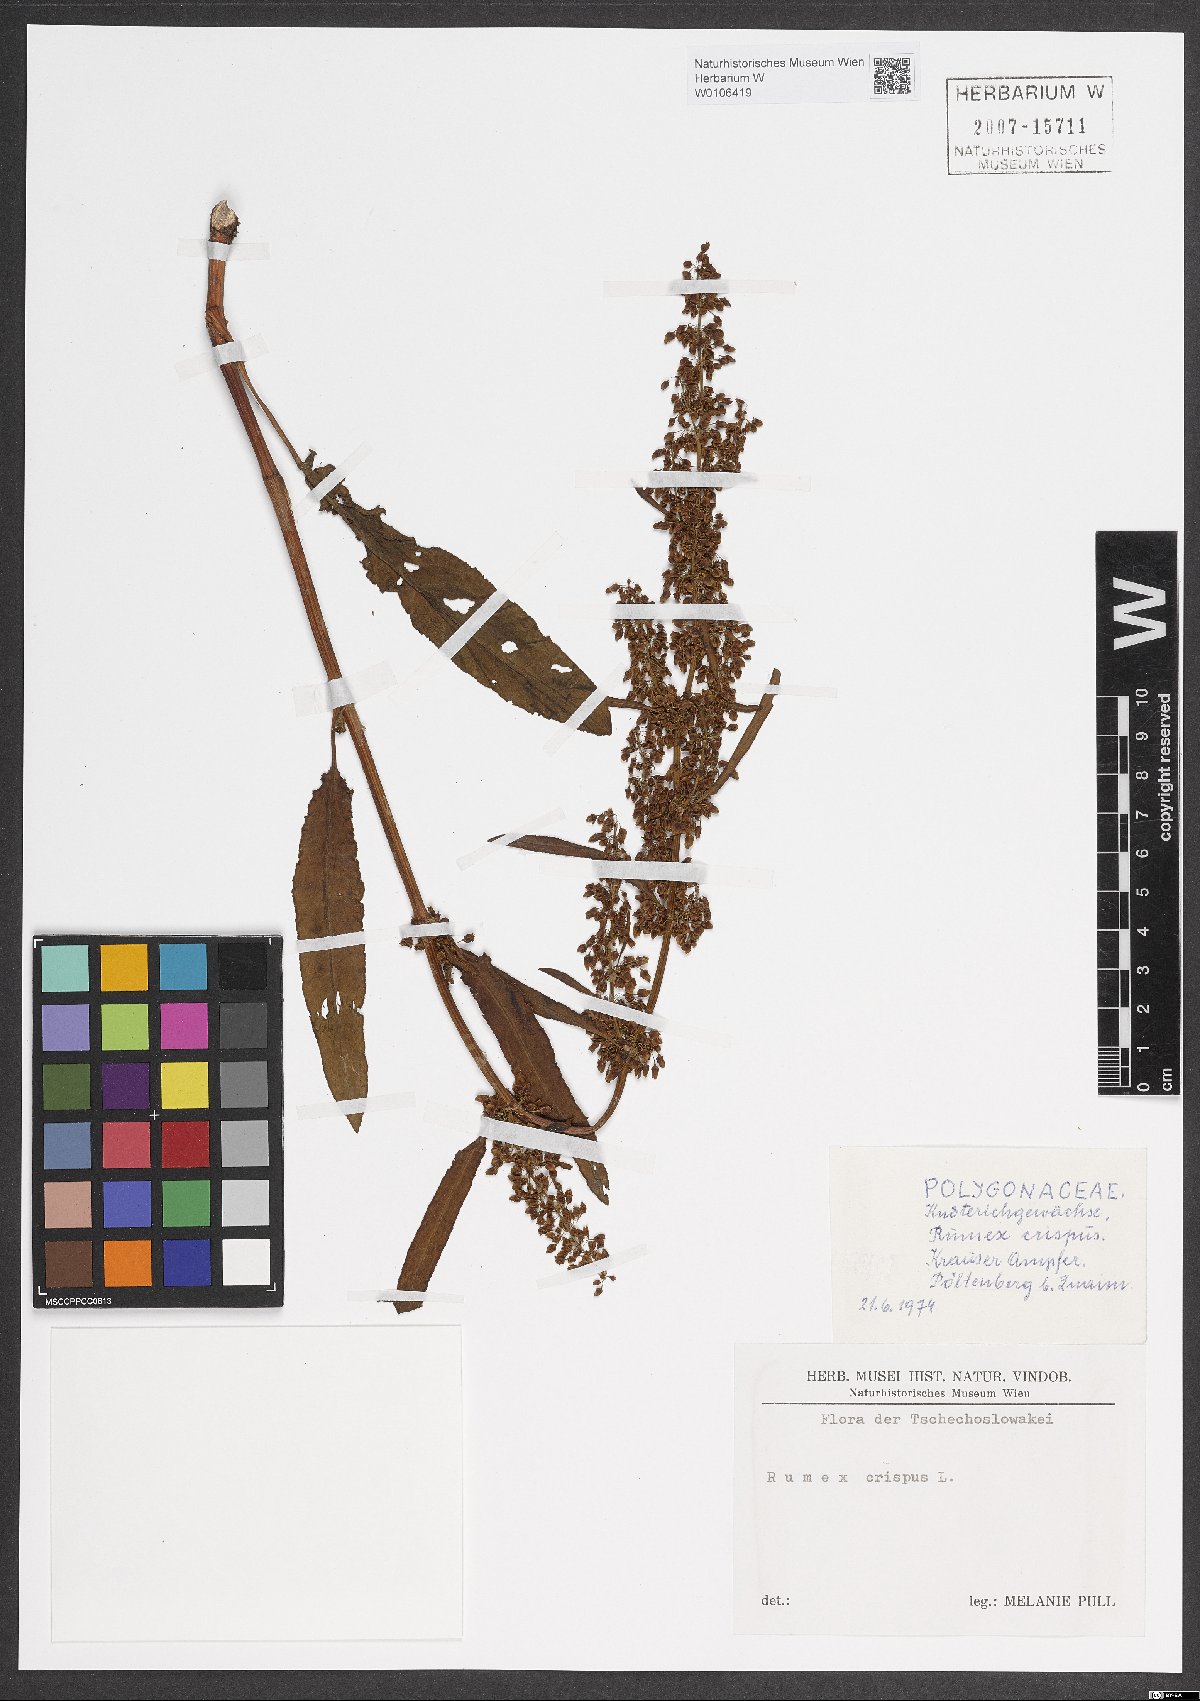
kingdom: Plantae
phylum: Tracheophyta
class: Magnoliopsida
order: Caryophyllales
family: Polygonaceae
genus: Rumex
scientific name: Rumex crispus
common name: Curled dock
